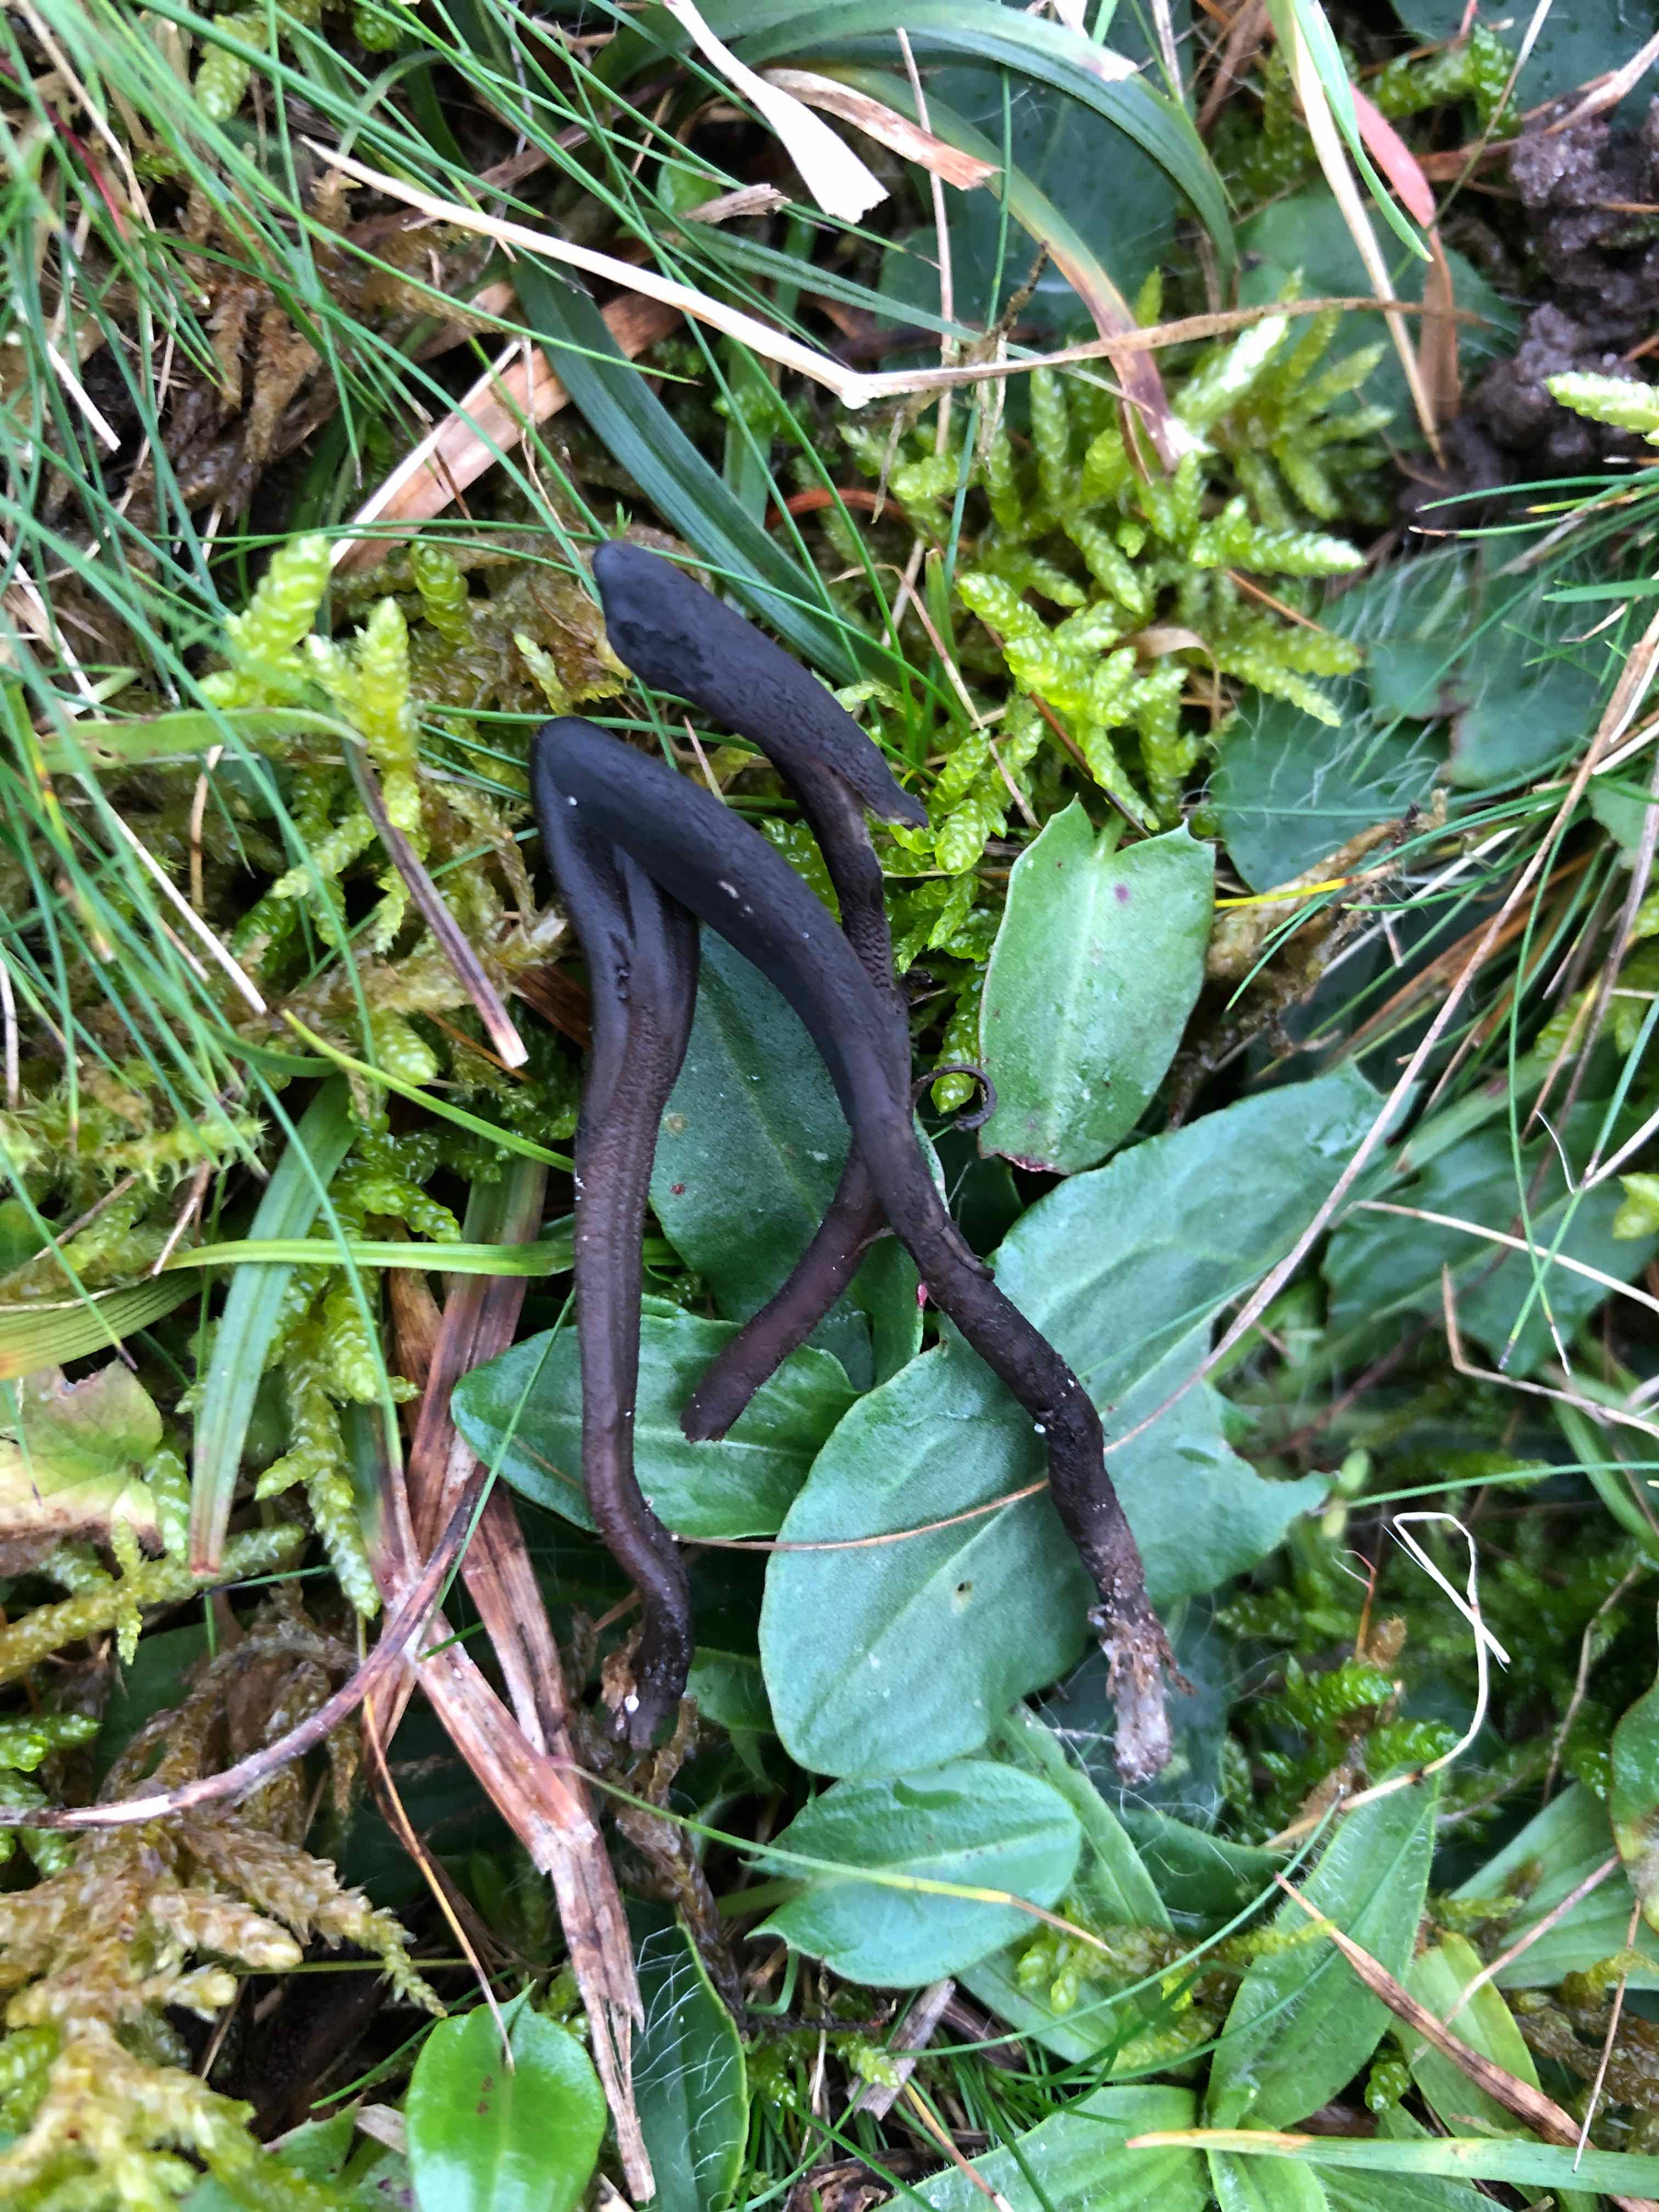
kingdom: Fungi
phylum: Ascomycota
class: Geoglossomycetes
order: Geoglossales
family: Geoglossaceae
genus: Hemileucoglossum
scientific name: Hemileucoglossum elongatum
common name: småsporet jordtunge
